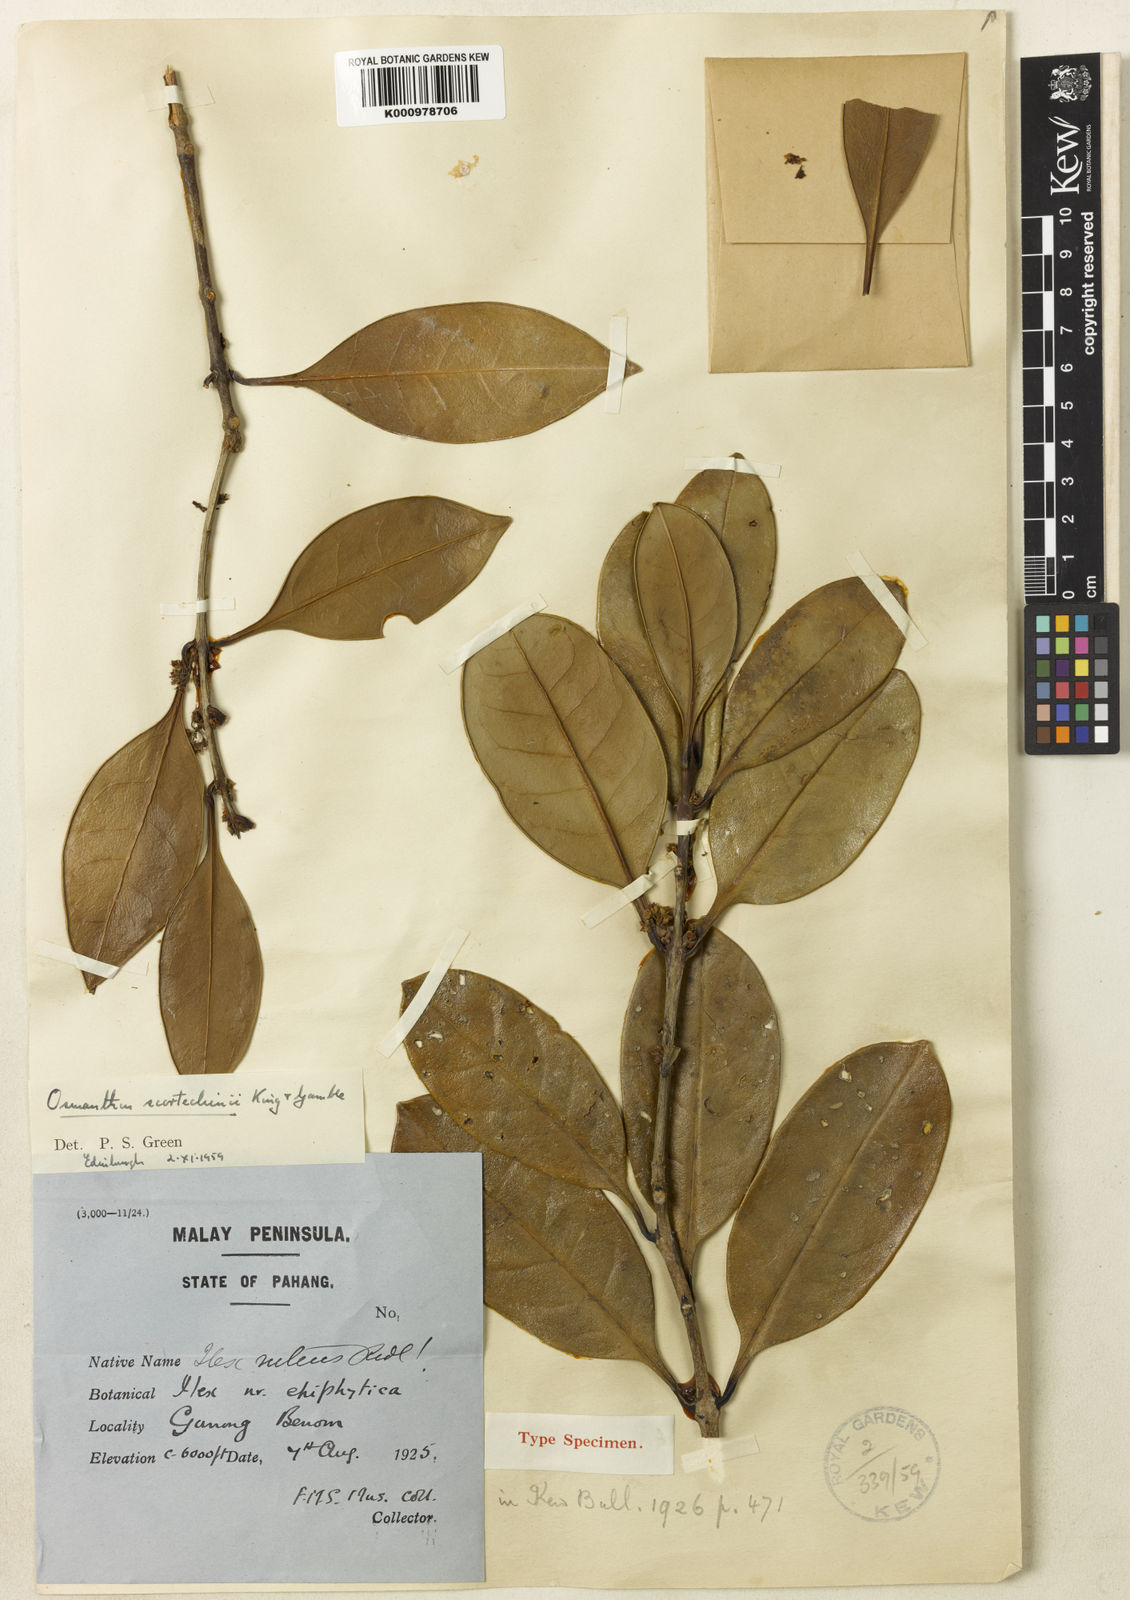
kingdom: Plantae
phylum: Tracheophyta
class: Magnoliopsida
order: Lamiales
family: Oleaceae
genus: Cartrema
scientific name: Cartrema scortechinii
